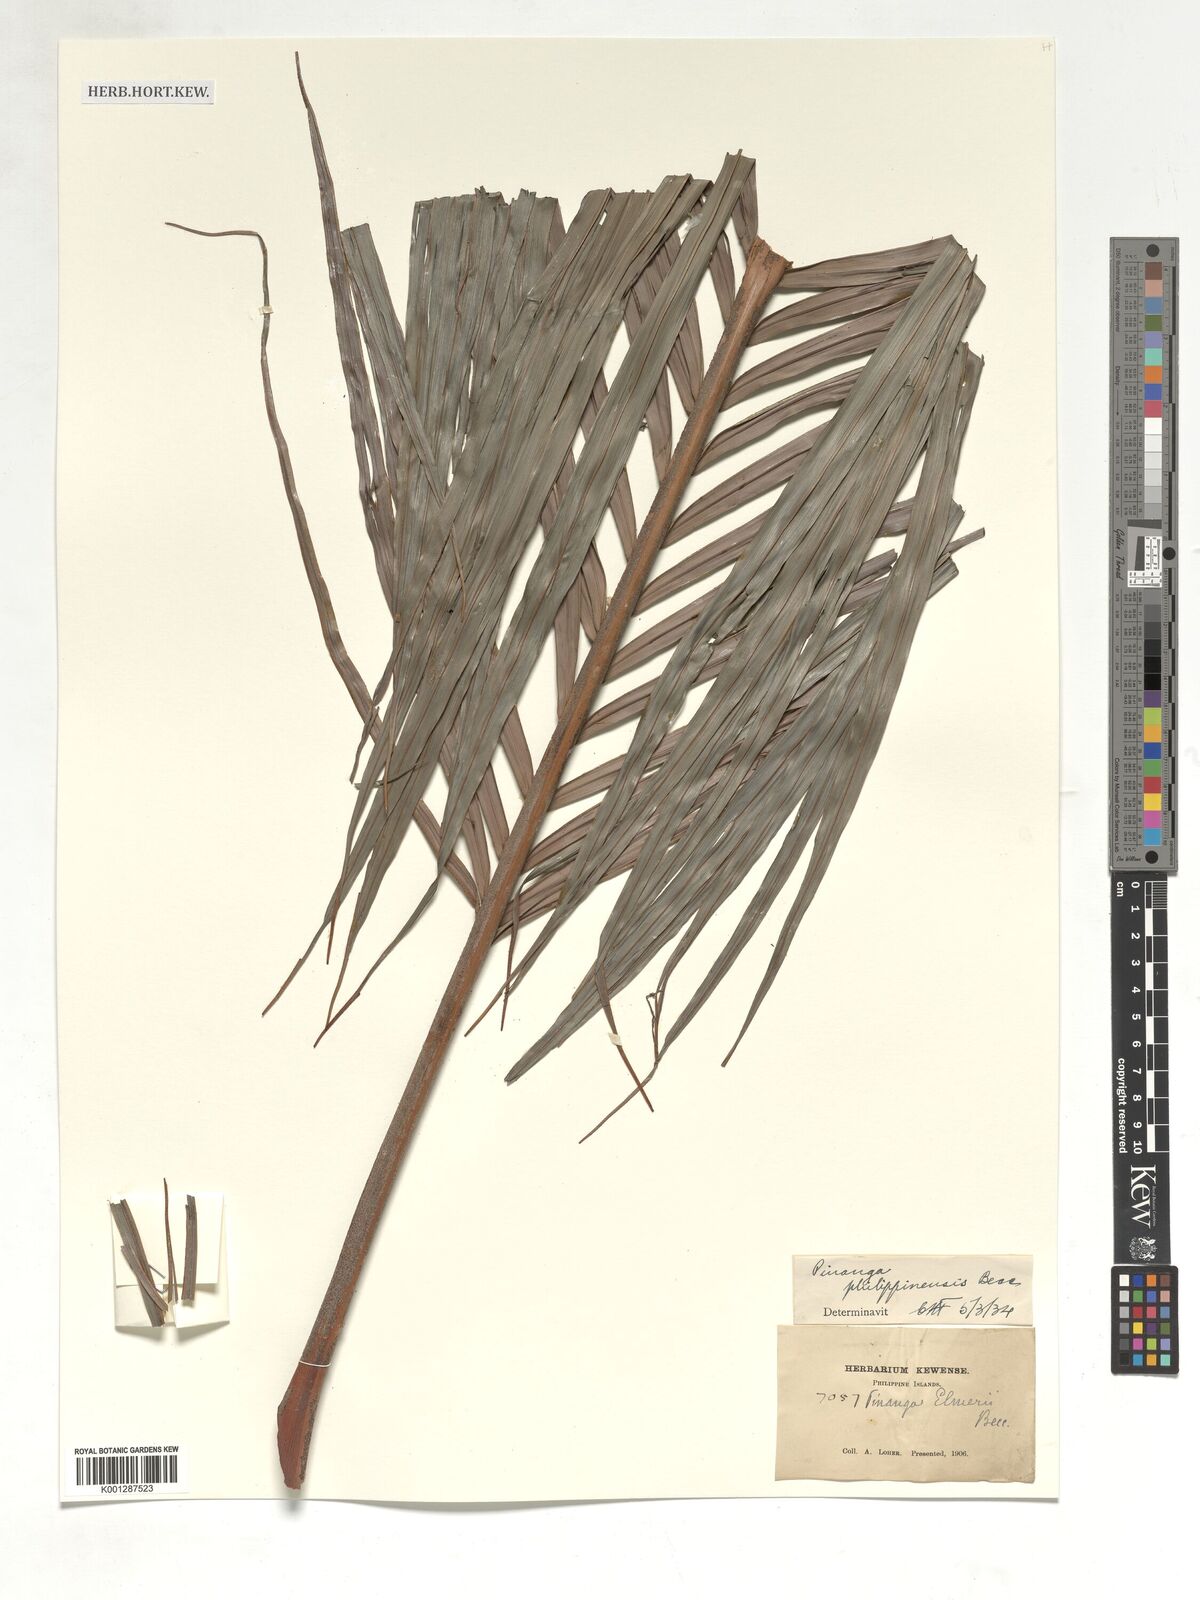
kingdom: Plantae
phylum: Tracheophyta
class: Liliopsida
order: Arecales
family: Arecaceae
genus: Pinanga
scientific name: Pinanga philippinensis
